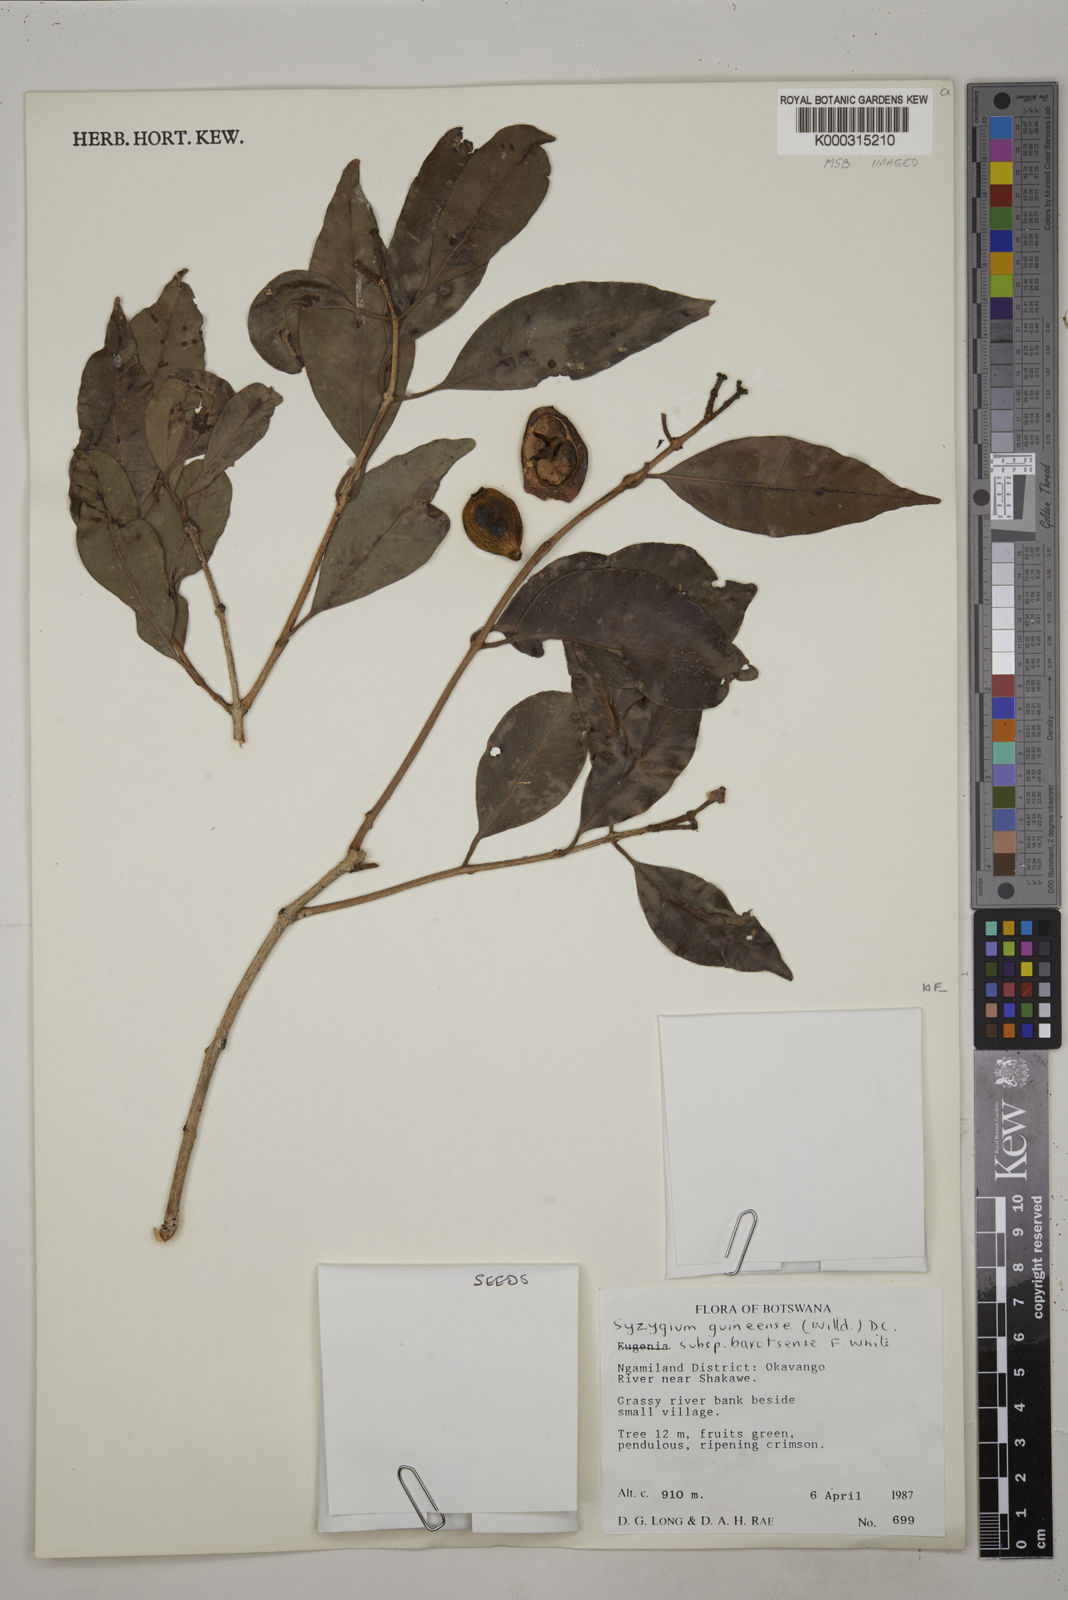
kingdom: Plantae
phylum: Tracheophyta
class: Magnoliopsida
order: Myrtales
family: Myrtaceae
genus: Syzygium
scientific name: Syzygium guineense
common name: Water-pear
